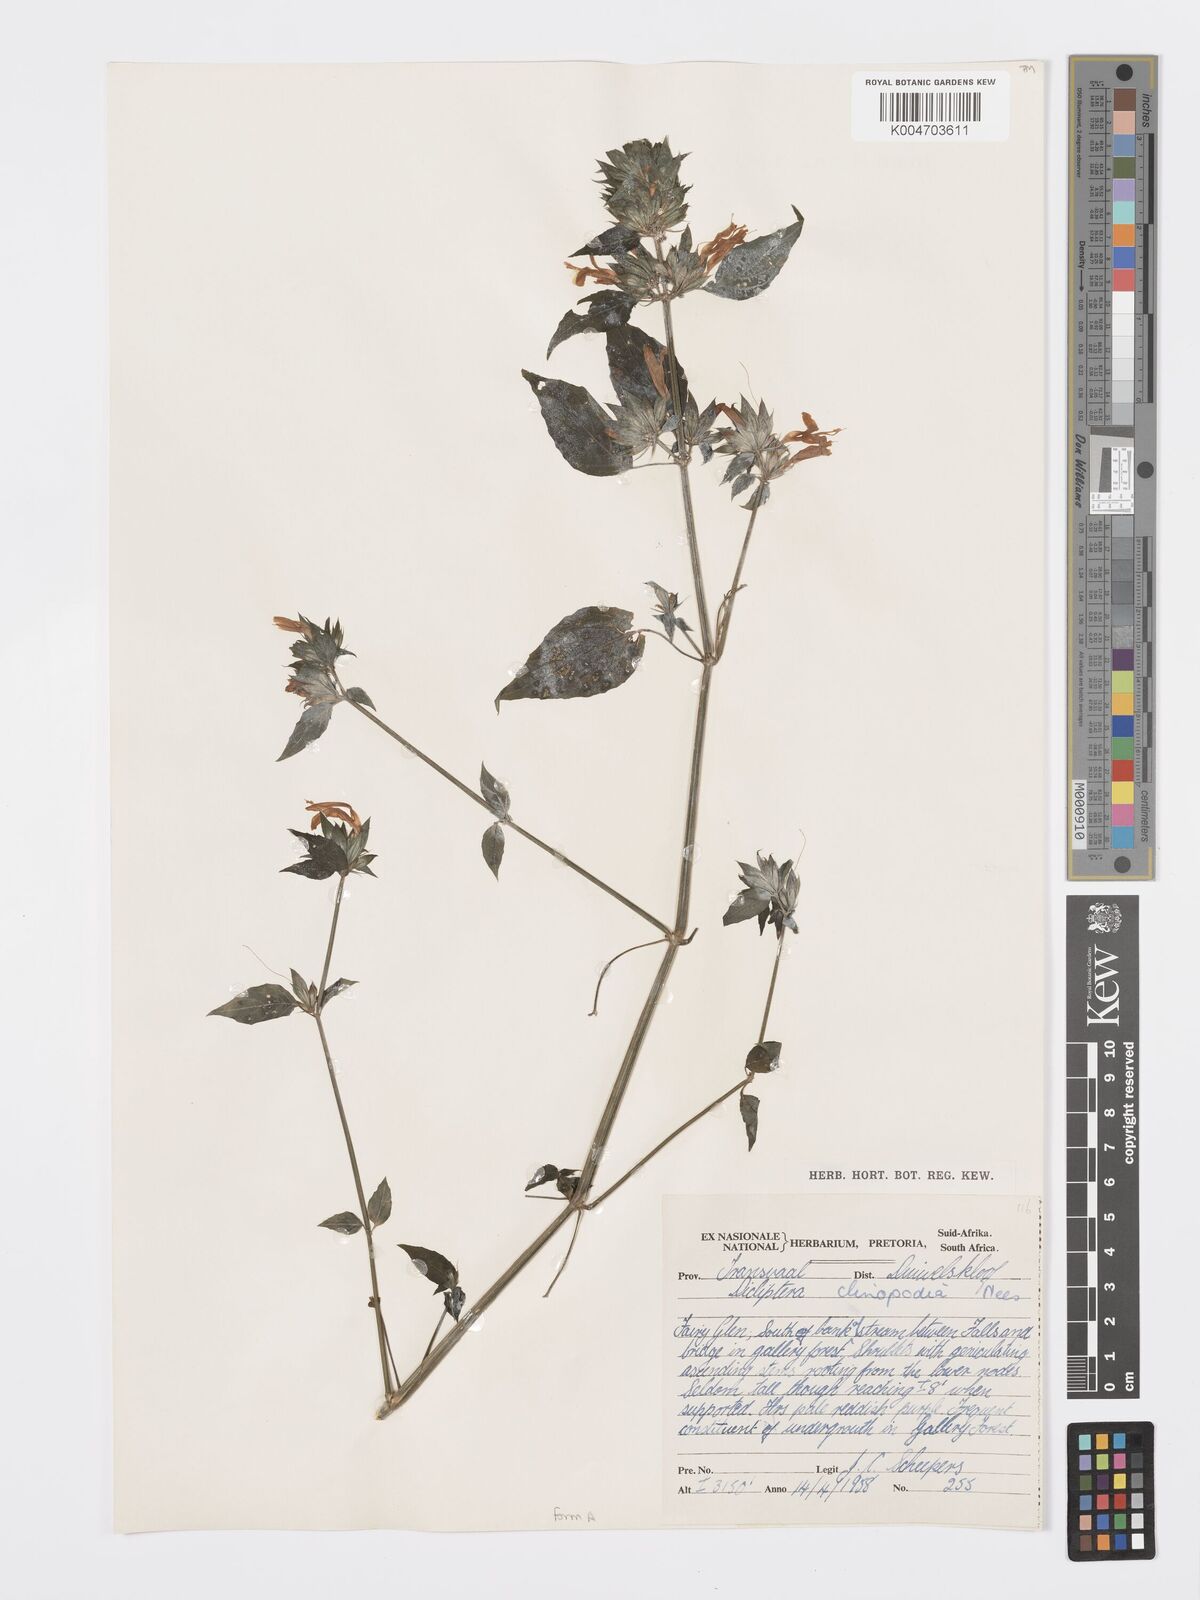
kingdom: Plantae
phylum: Tracheophyta
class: Magnoliopsida
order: Lamiales
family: Acanthaceae
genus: Dicliptera
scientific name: Dicliptera clinopodia
